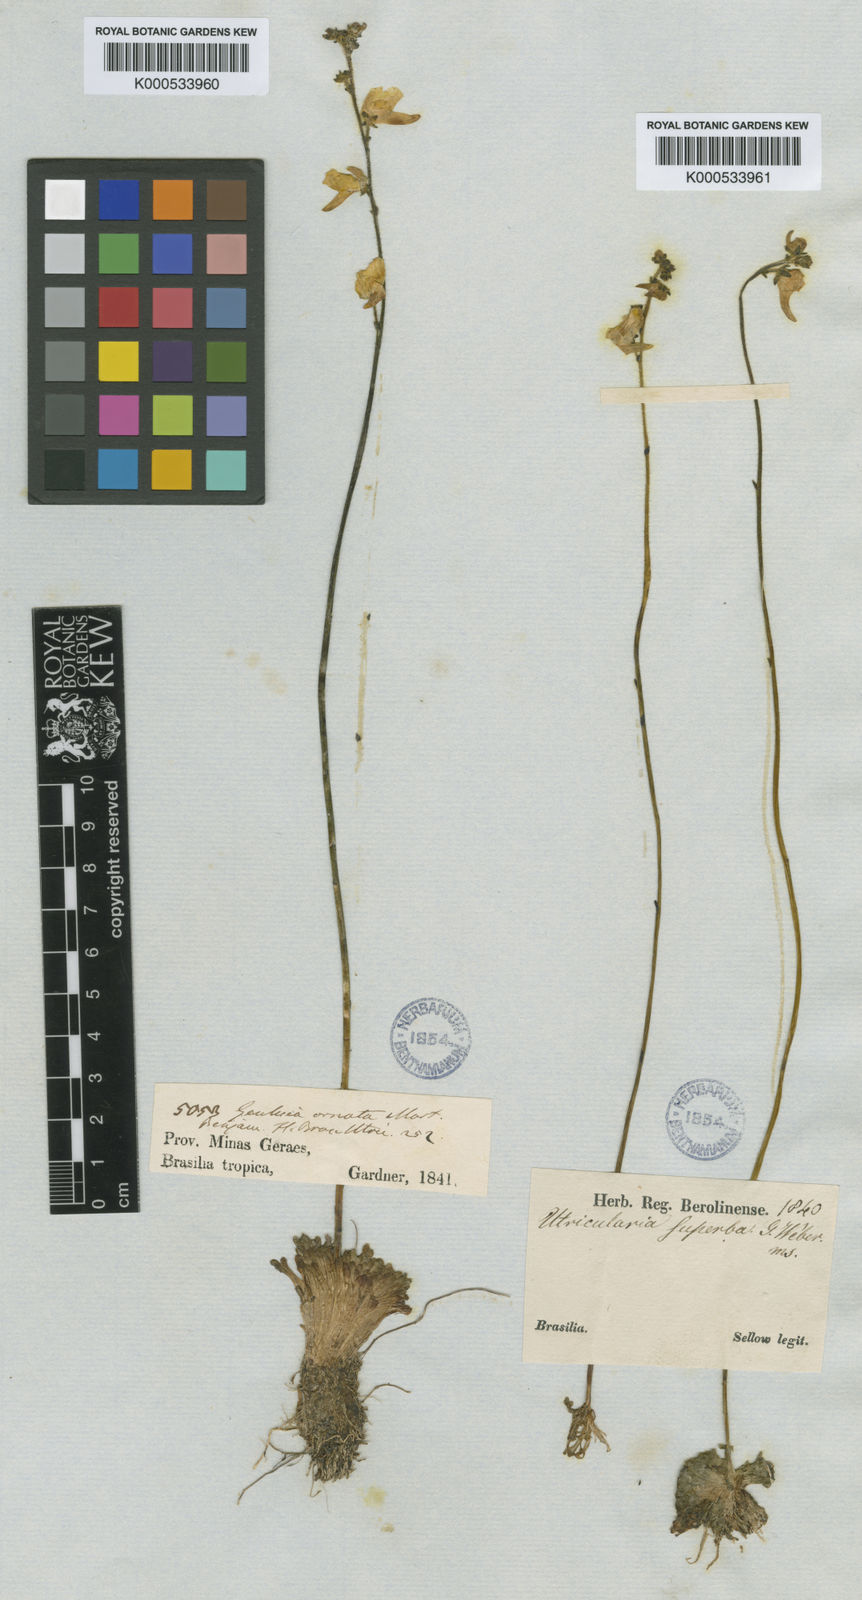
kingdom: Plantae
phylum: Tracheophyta
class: Magnoliopsida
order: Lamiales
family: Lentibulariaceae
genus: Genlisea
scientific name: Genlisea aurea
